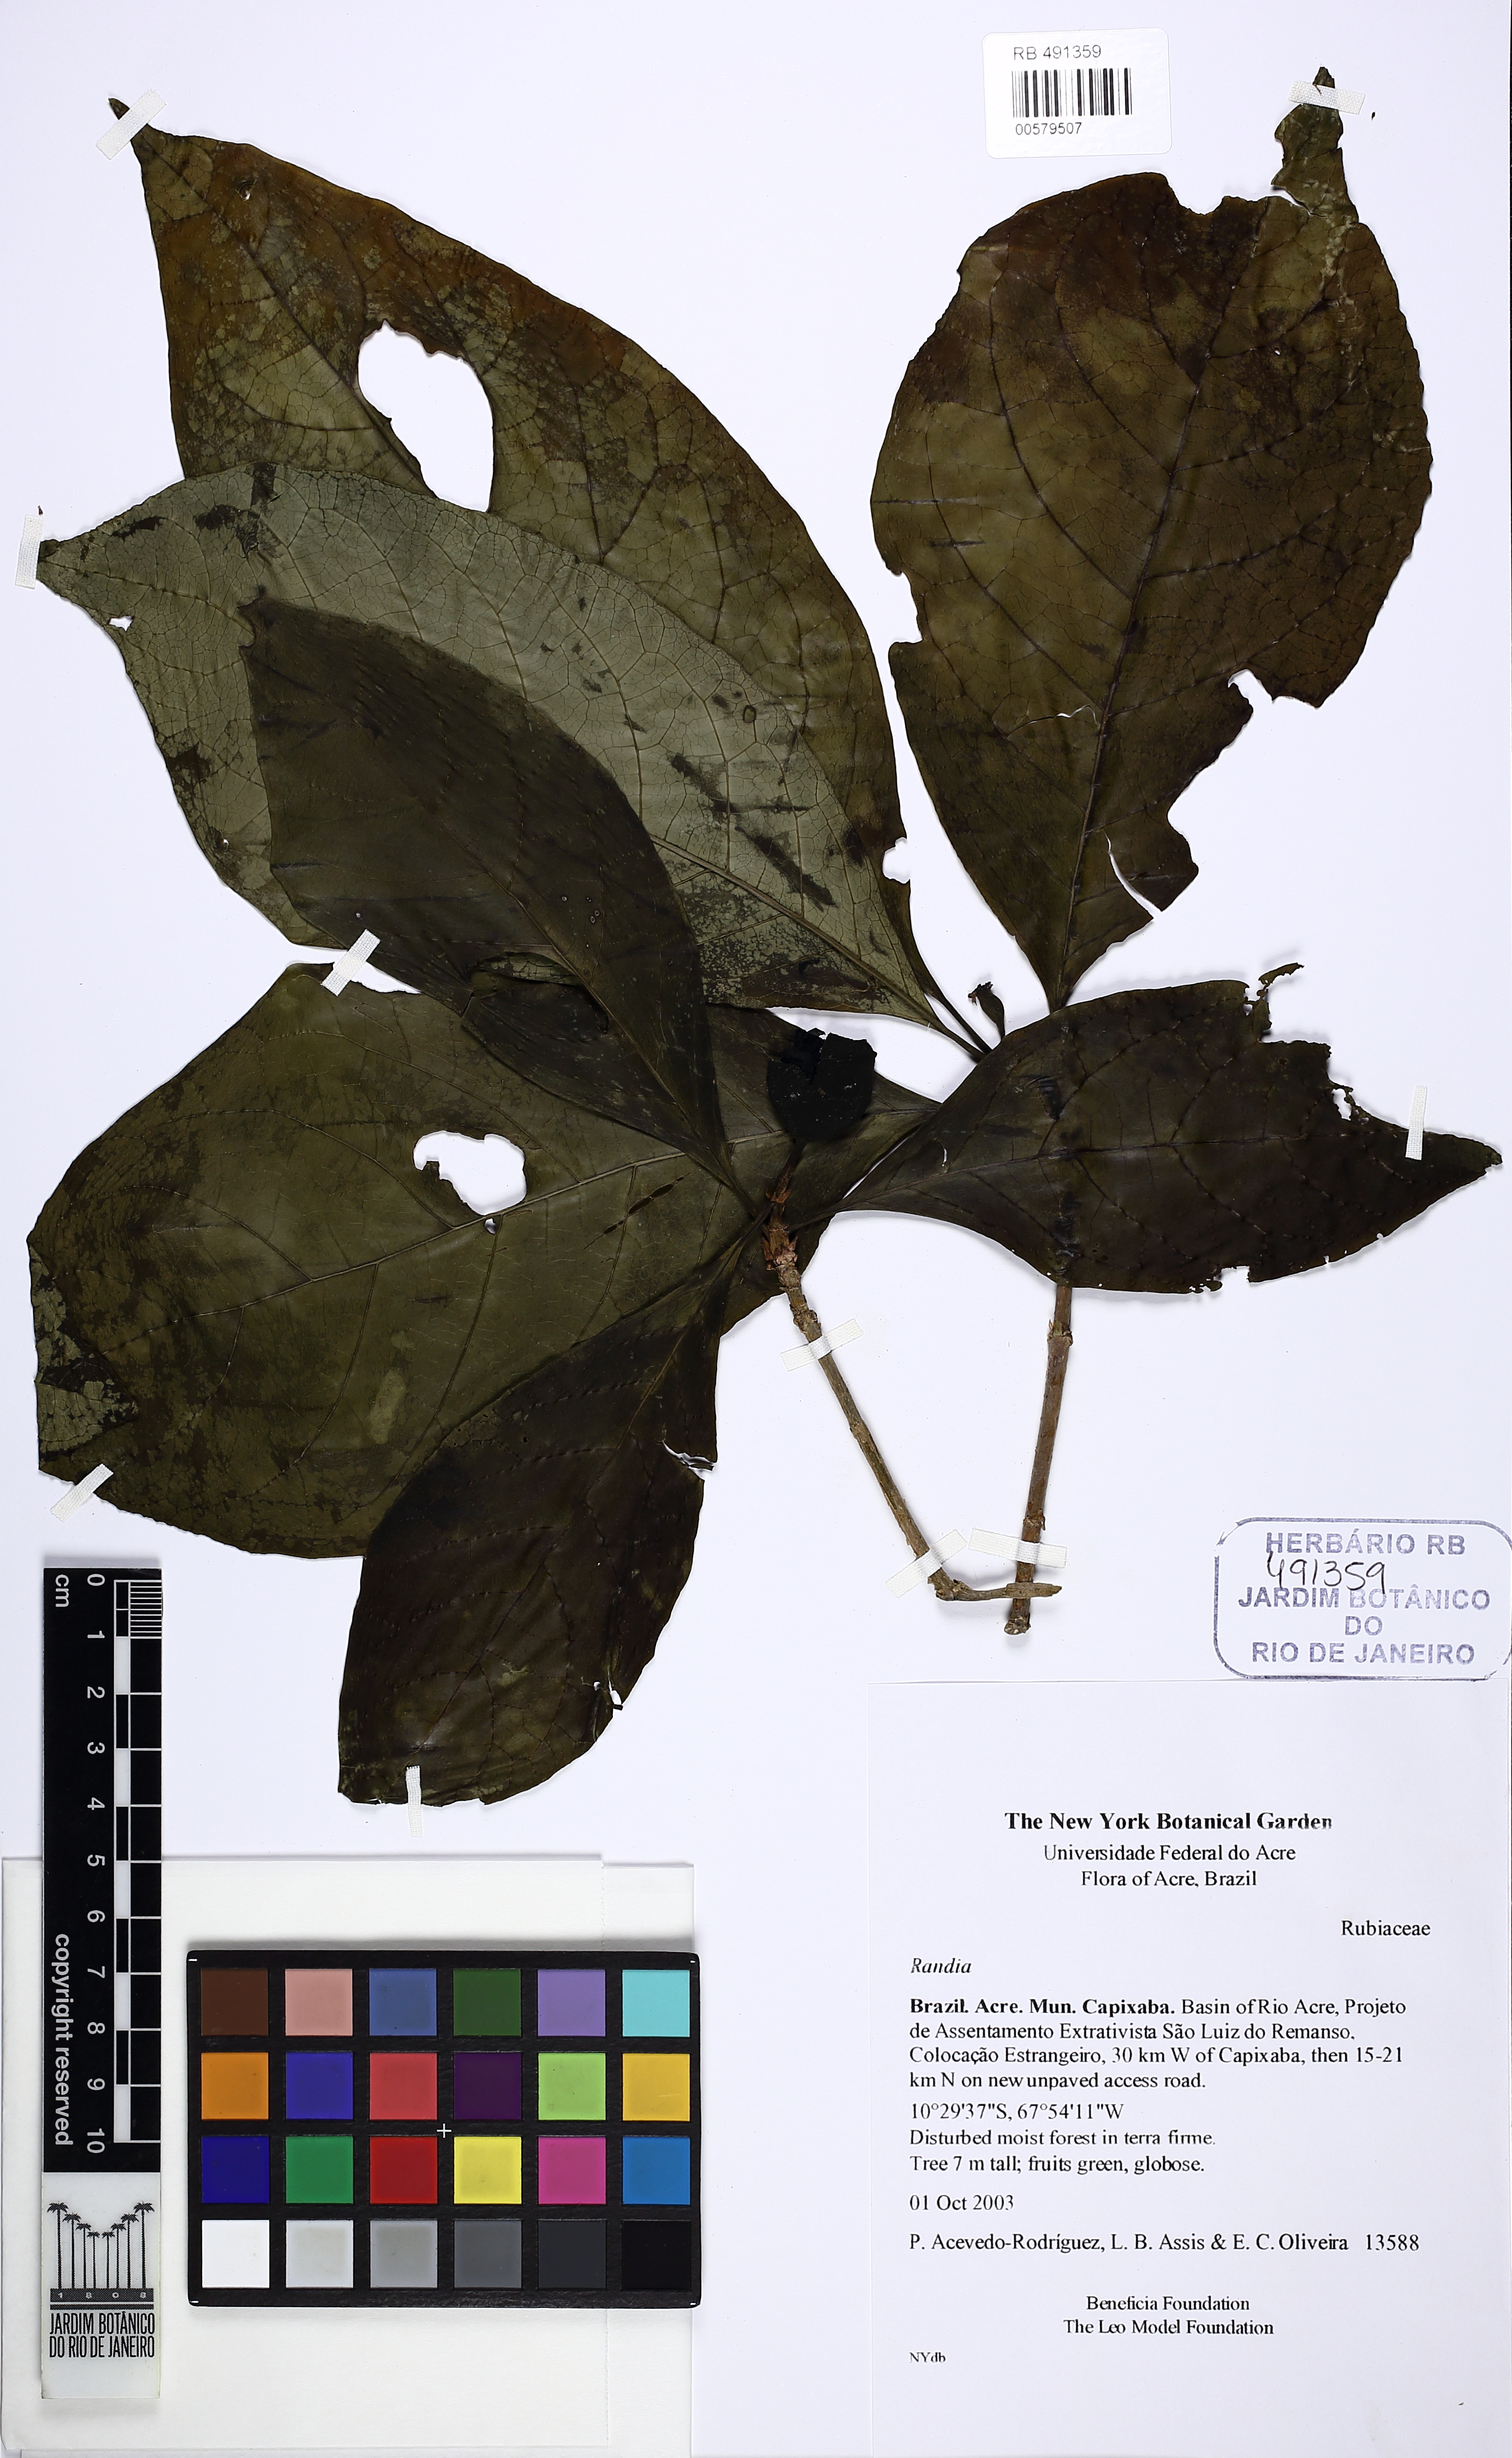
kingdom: Plantae
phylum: Tracheophyta
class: Magnoliopsida
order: Gentianales
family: Rubiaceae
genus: Sphinctanthus
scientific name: Sphinctanthus
